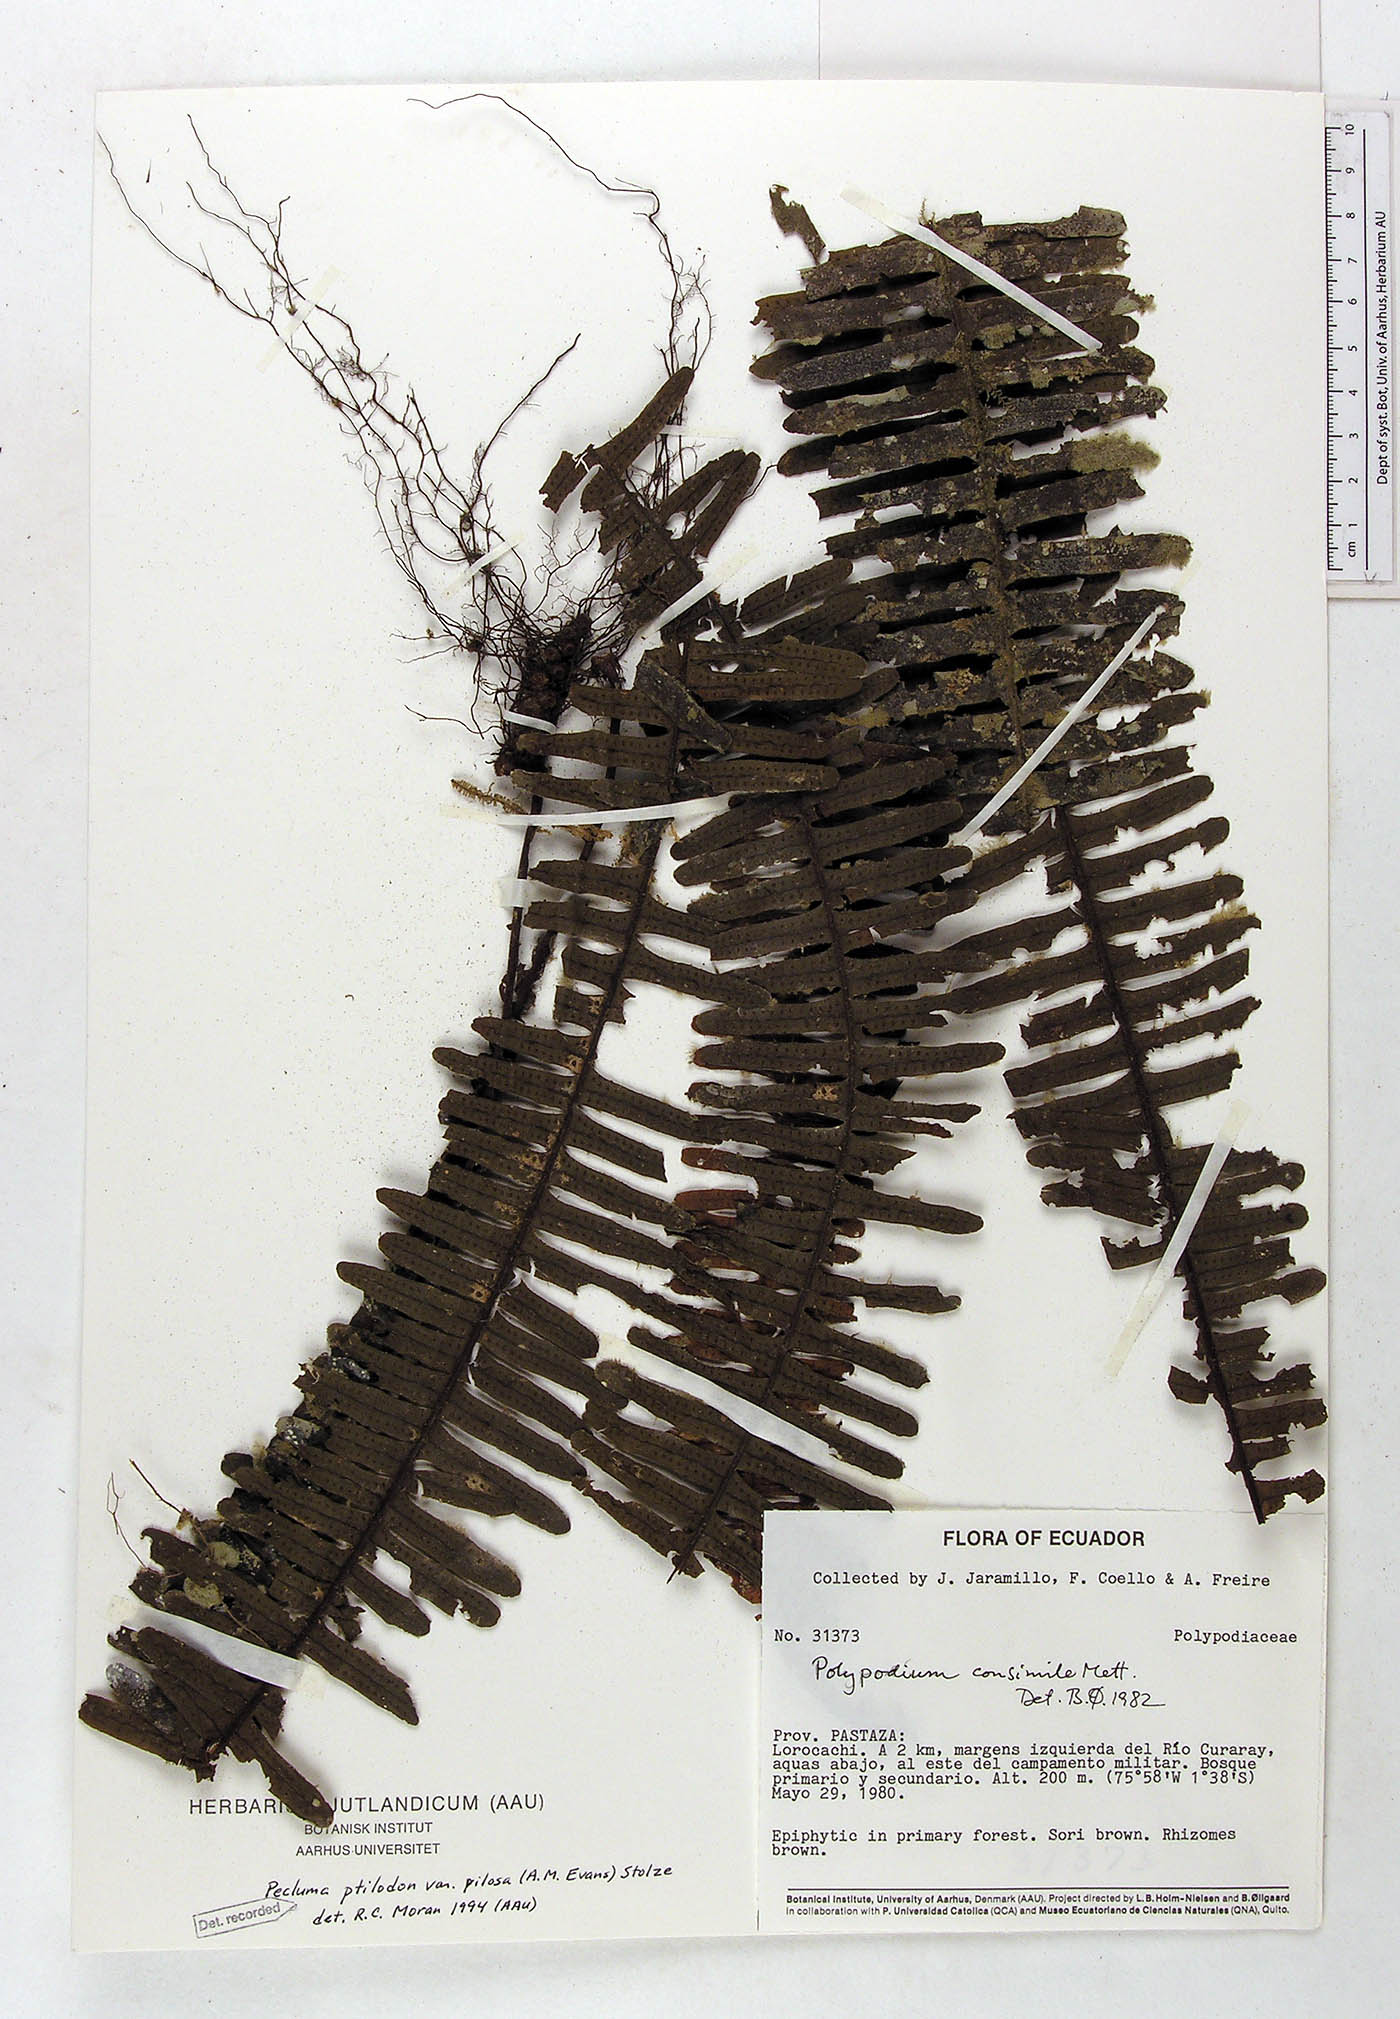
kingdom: Plantae
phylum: Tracheophyta
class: Polypodiopsida
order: Polypodiales
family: Polypodiaceae
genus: Pecluma
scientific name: Pecluma ptilotos
